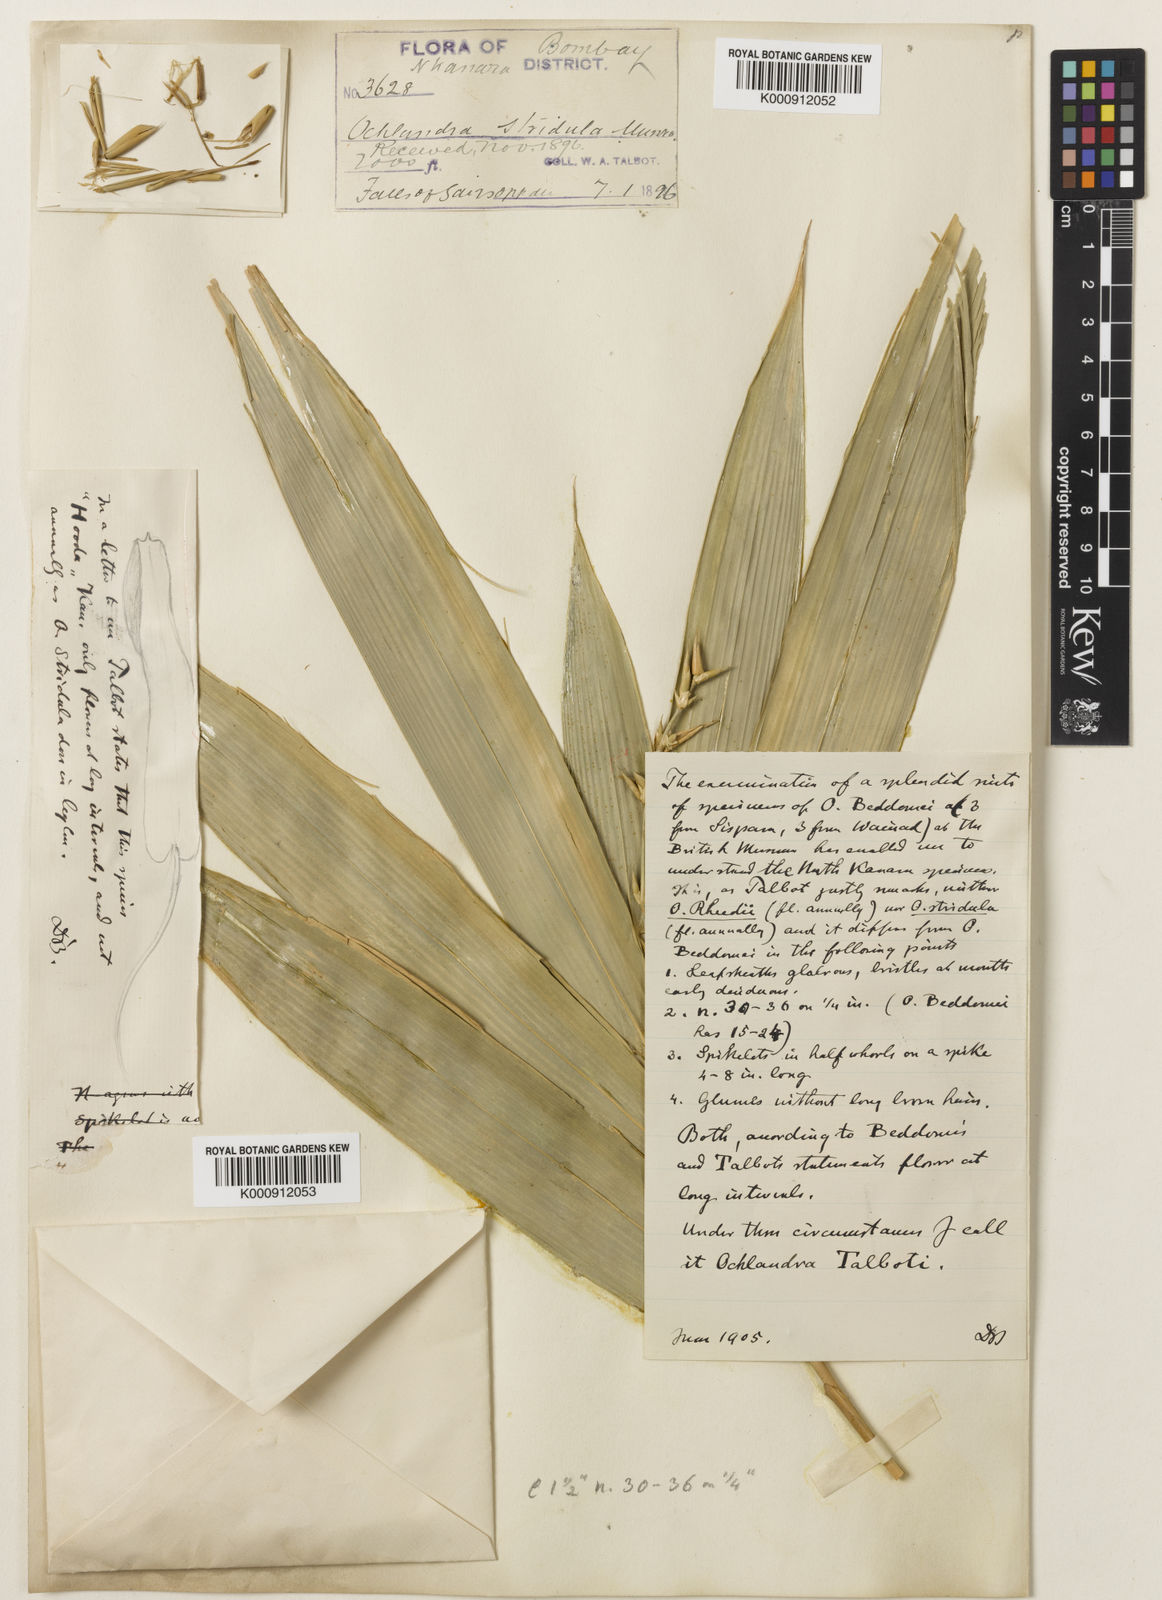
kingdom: Plantae
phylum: Tracheophyta
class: Liliopsida
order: Poales
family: Poaceae
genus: Ochlandra
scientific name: Ochlandra talbotii
